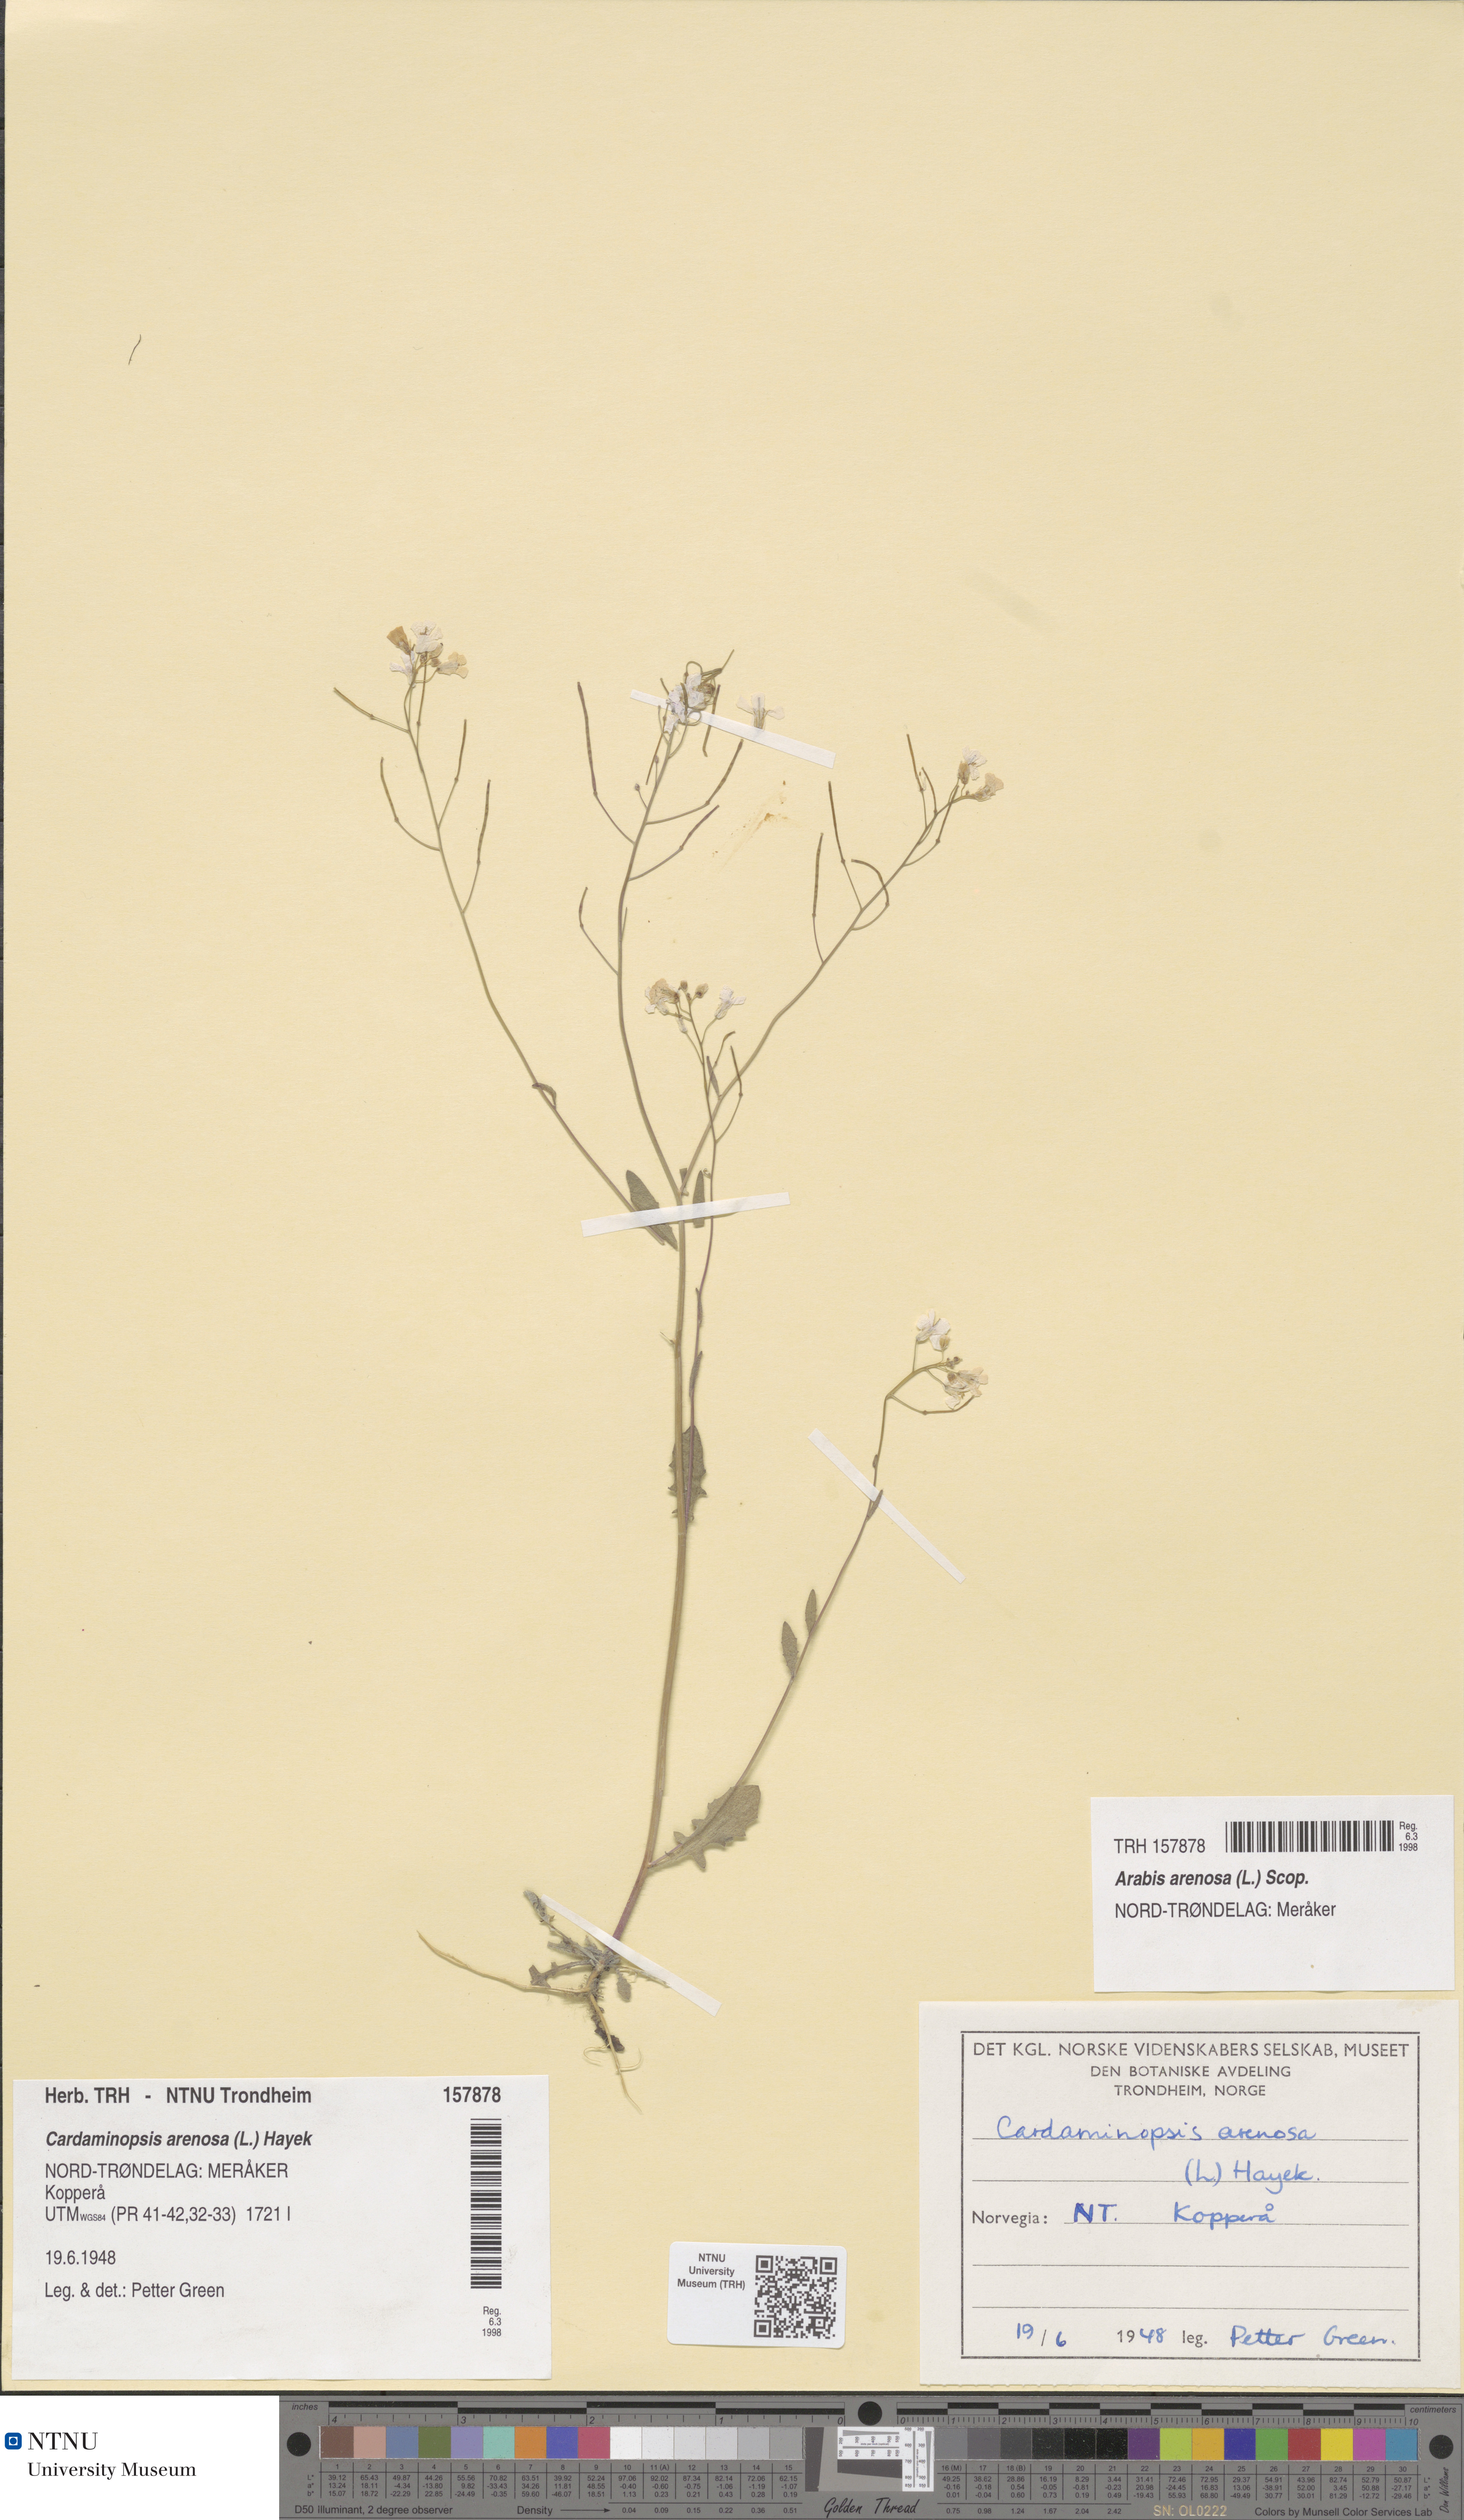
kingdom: Plantae
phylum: Tracheophyta
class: Magnoliopsida
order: Brassicales
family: Brassicaceae
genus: Arabidopsis
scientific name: Arabidopsis arenosa
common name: Sand rock-cress
